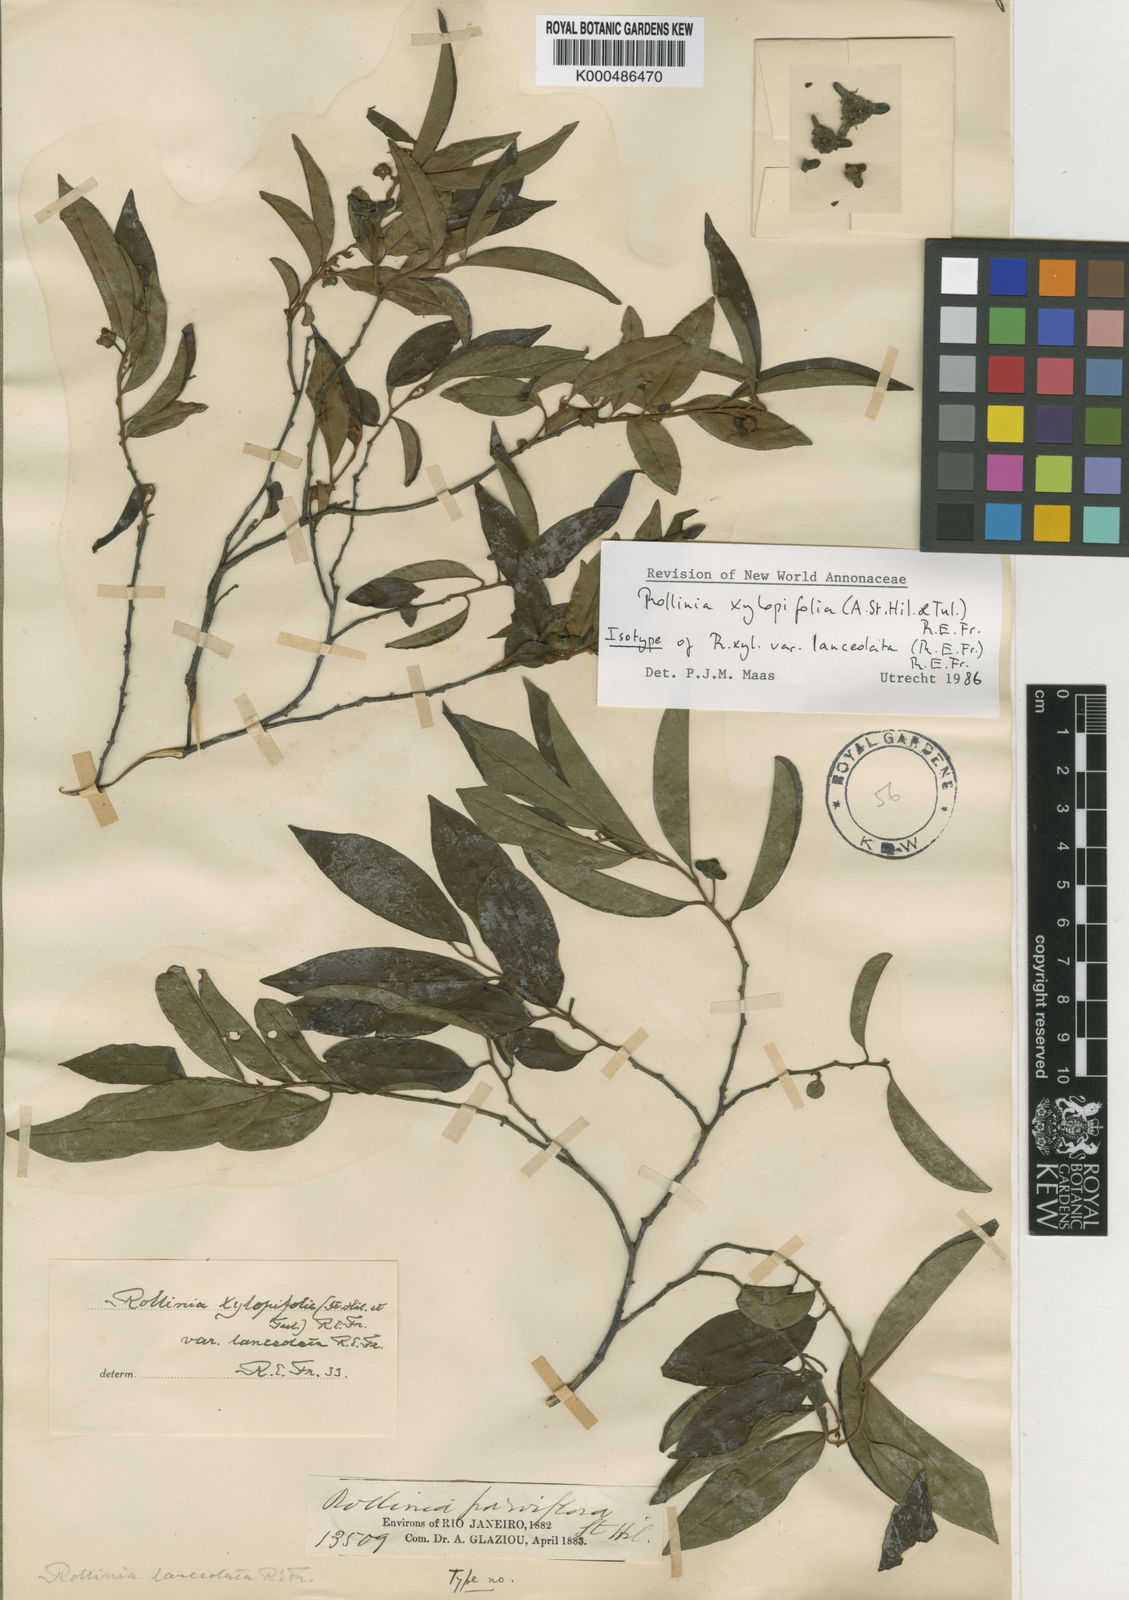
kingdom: Plantae
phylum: Tracheophyta
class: Magnoliopsida
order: Magnoliales
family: Annonaceae
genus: Annona
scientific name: Annona xylopiifolia
